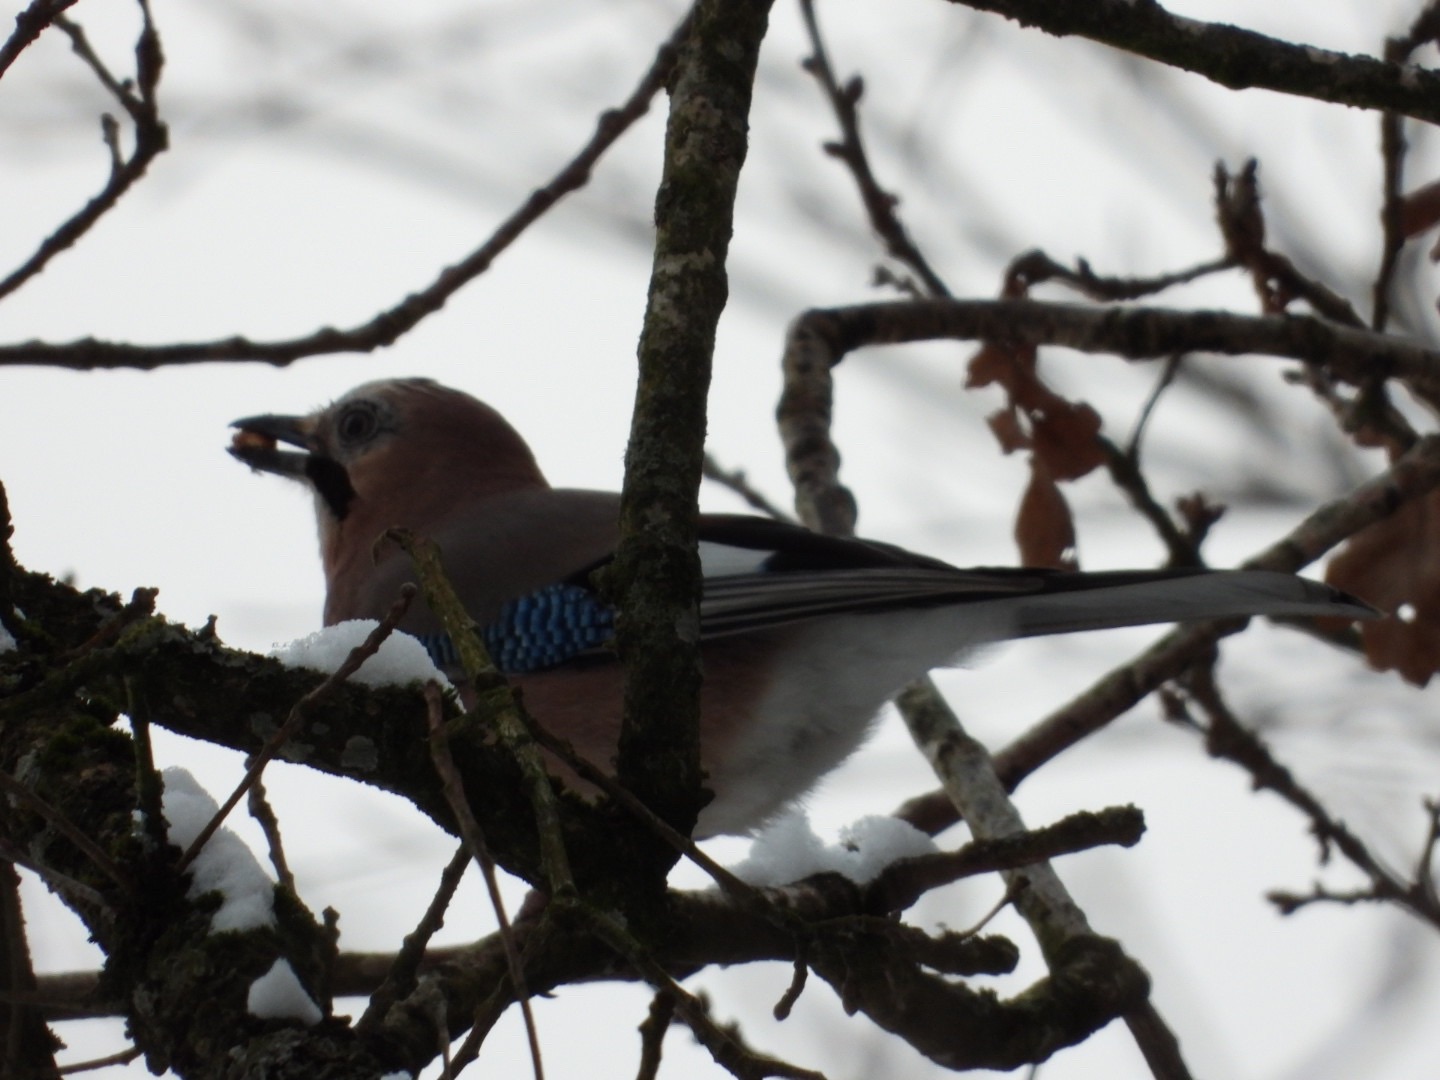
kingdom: Animalia
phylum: Chordata
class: Aves
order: Passeriformes
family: Corvidae
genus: Garrulus
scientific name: Garrulus glandarius
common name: Skovskade
